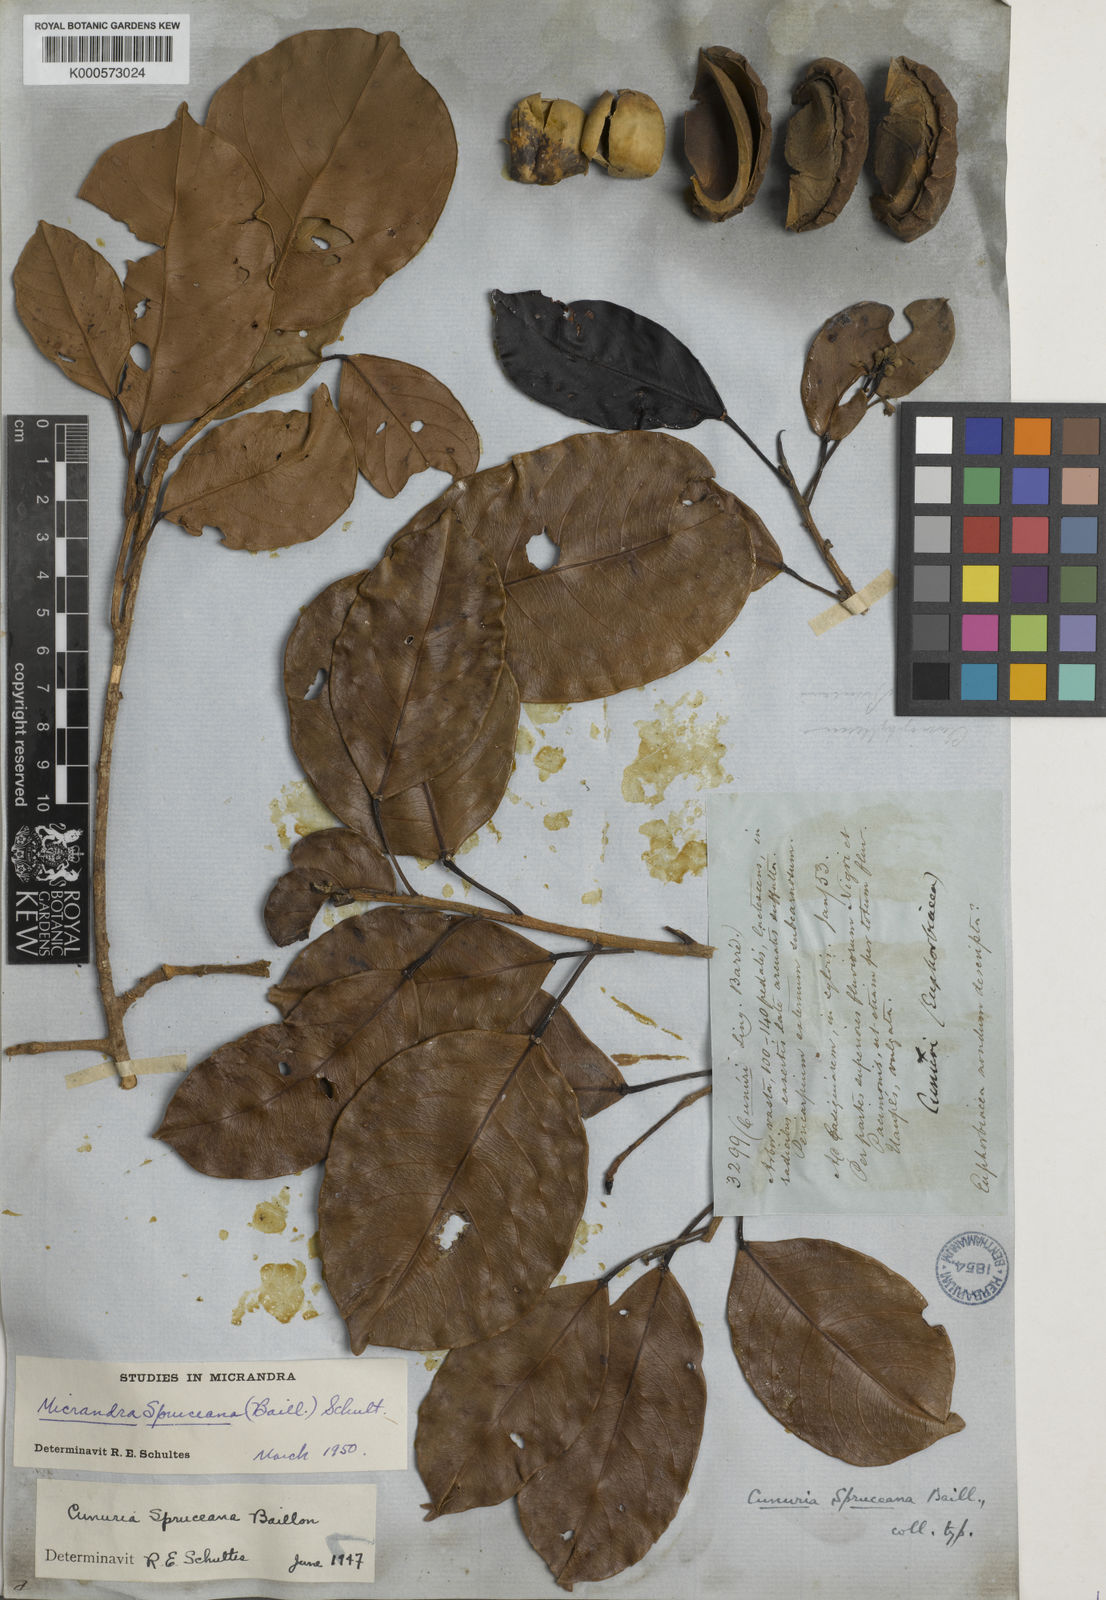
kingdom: Plantae
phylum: Tracheophyta
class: Magnoliopsida
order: Malpighiales
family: Euphorbiaceae
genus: Micrandra
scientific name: Micrandra spruceana
